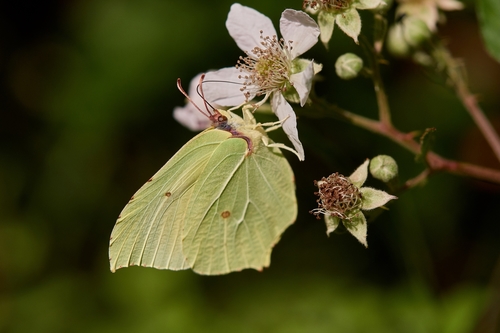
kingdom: Animalia
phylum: Arthropoda
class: Insecta
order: Lepidoptera
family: Pieridae
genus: Gonepteryx
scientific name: Gonepteryx rhamni
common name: Brimstone
